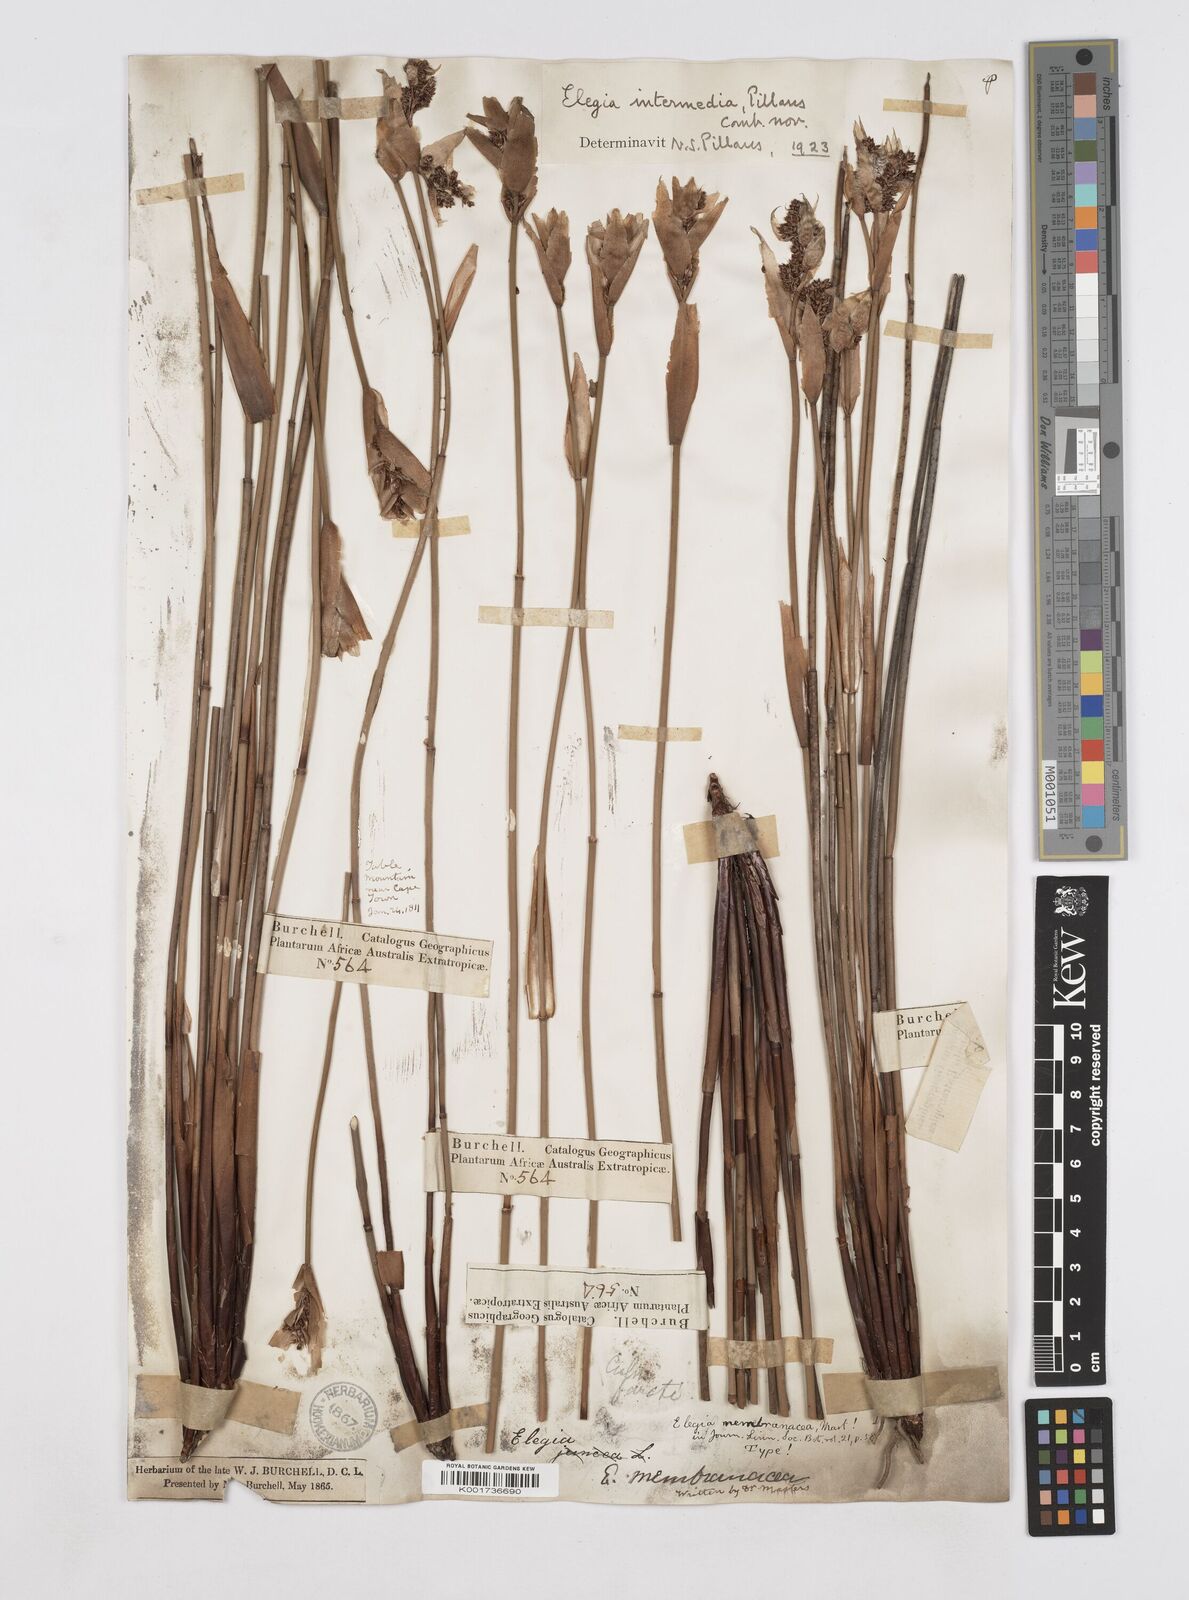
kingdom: Plantae
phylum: Tracheophyta
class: Liliopsida
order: Poales
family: Restionaceae
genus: Elegia
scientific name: Elegia intermedia
